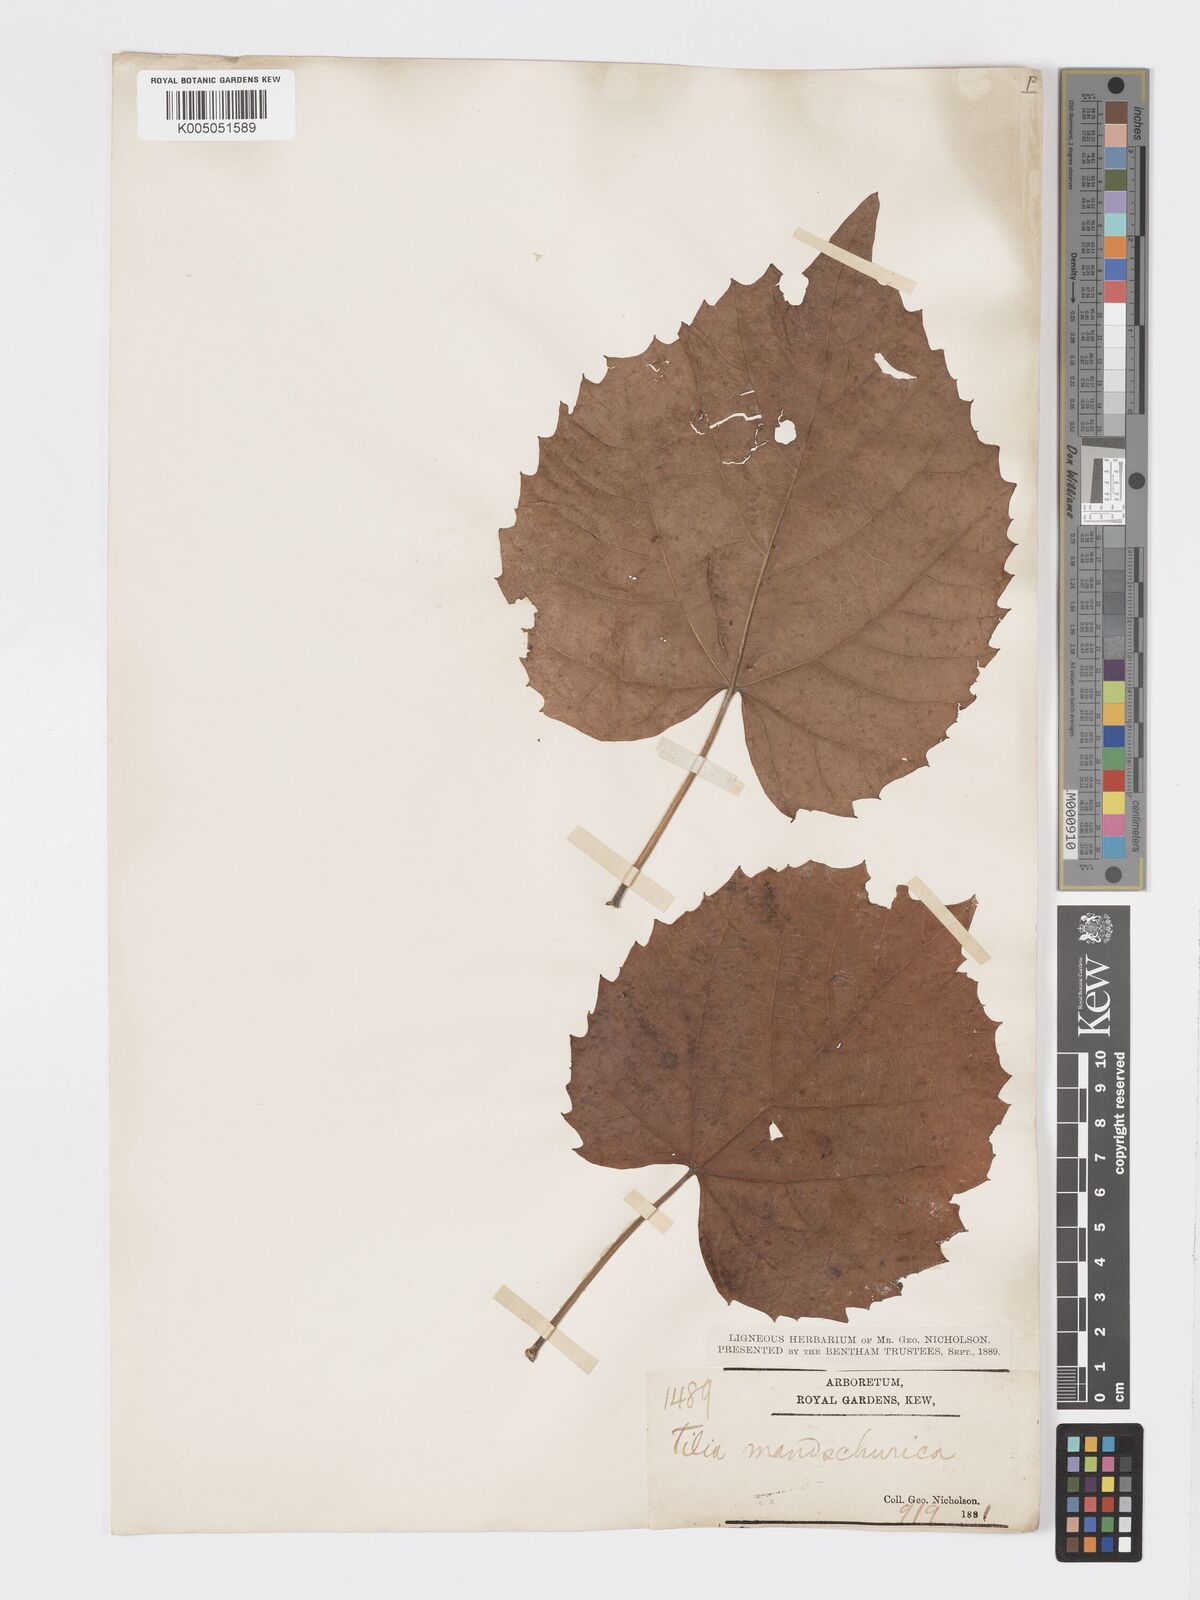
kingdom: Plantae
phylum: Tracheophyta
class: Magnoliopsida
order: Malvales
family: Malvaceae
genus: Tilia
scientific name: Tilia mandshurica
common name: Manchurian linden
